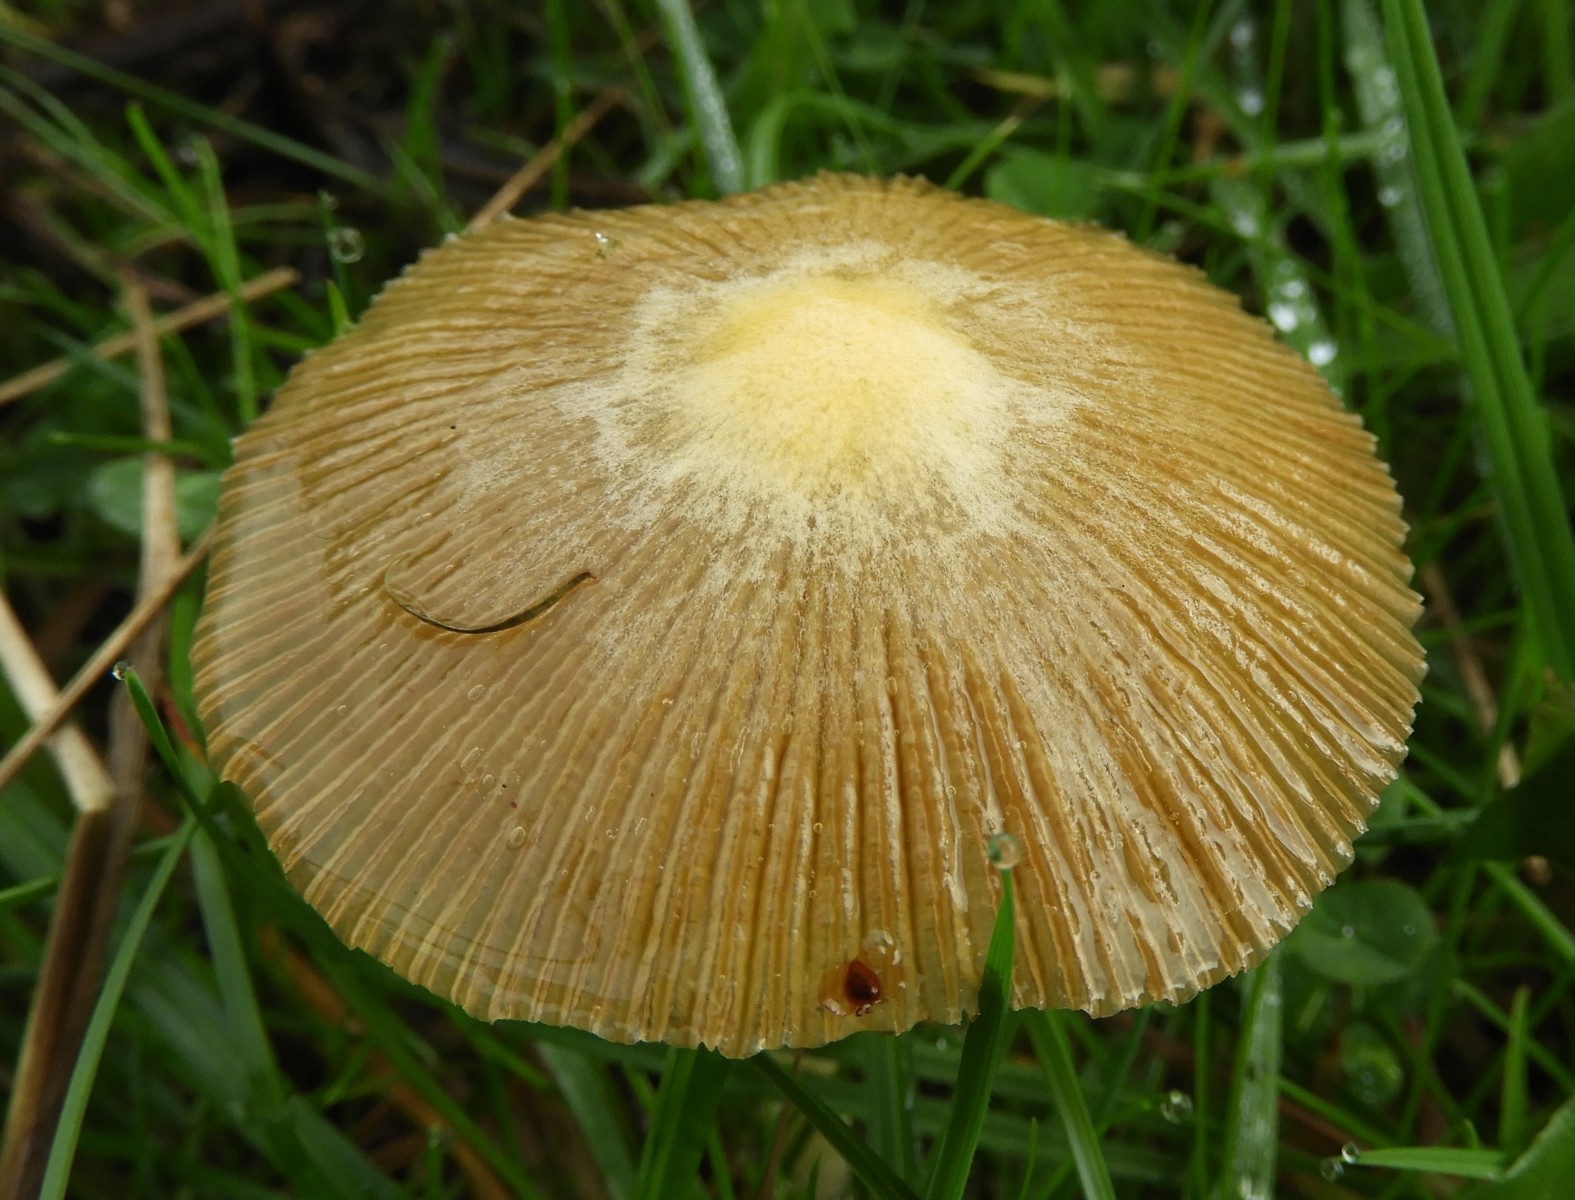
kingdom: Fungi
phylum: Basidiomycota
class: Agaricomycetes
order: Agaricales
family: Bolbitiaceae
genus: Bolbitius
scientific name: Bolbitius titubans
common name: almindelig gulhat
